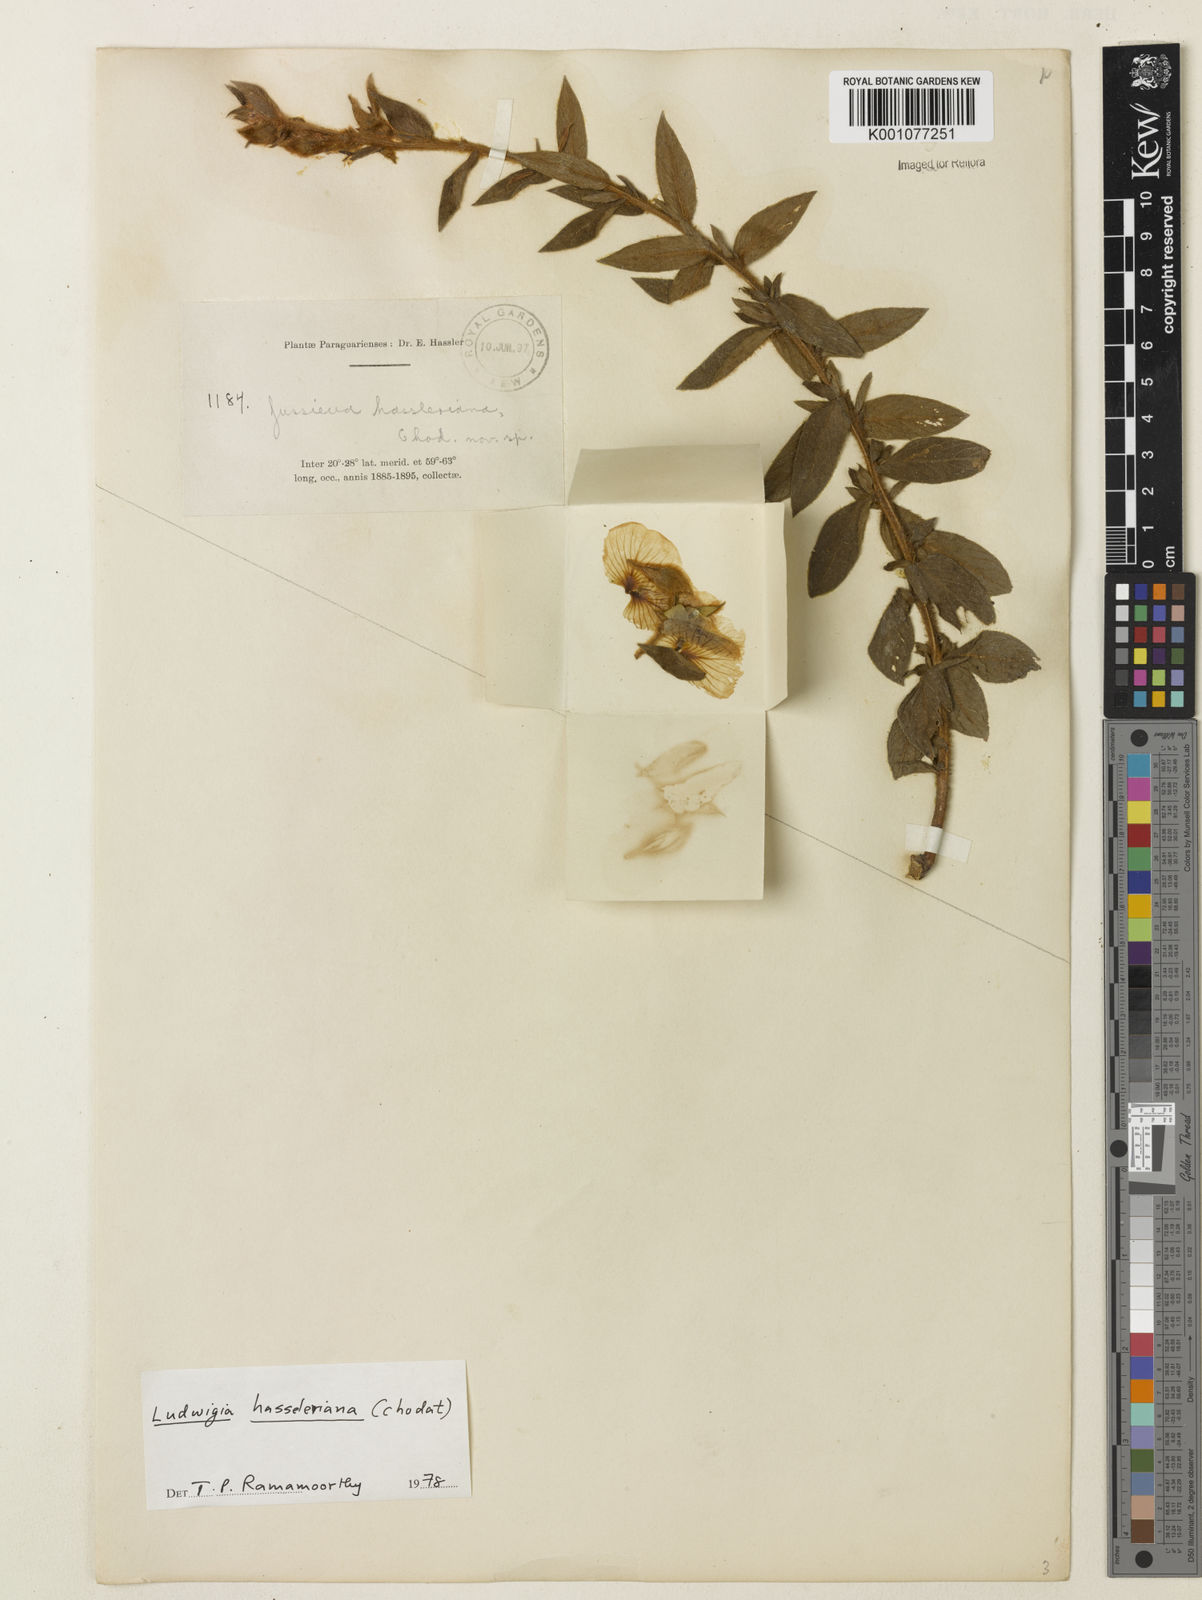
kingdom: Plantae
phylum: Tracheophyta
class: Magnoliopsida
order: Myrtales
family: Onagraceae
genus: Ludwigia
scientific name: Ludwigia hassleriana
